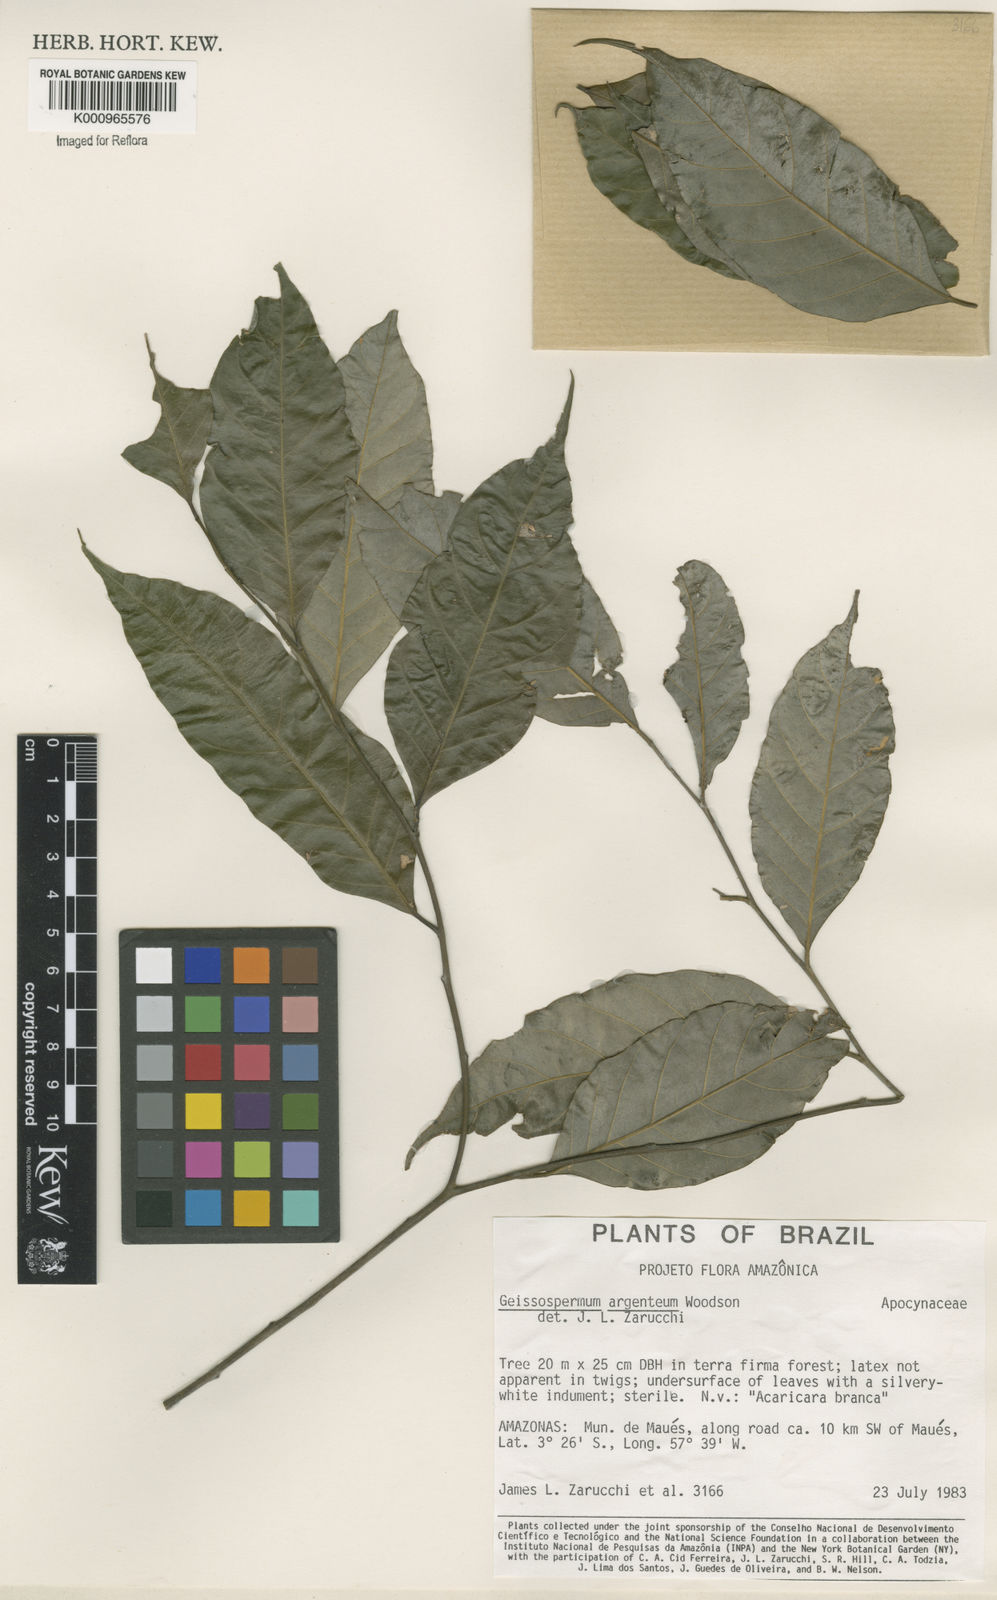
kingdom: Plantae
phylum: Tracheophyta
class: Magnoliopsida
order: Gentianales
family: Apocynaceae
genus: Geissospermum
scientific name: Geissospermum argenteum
